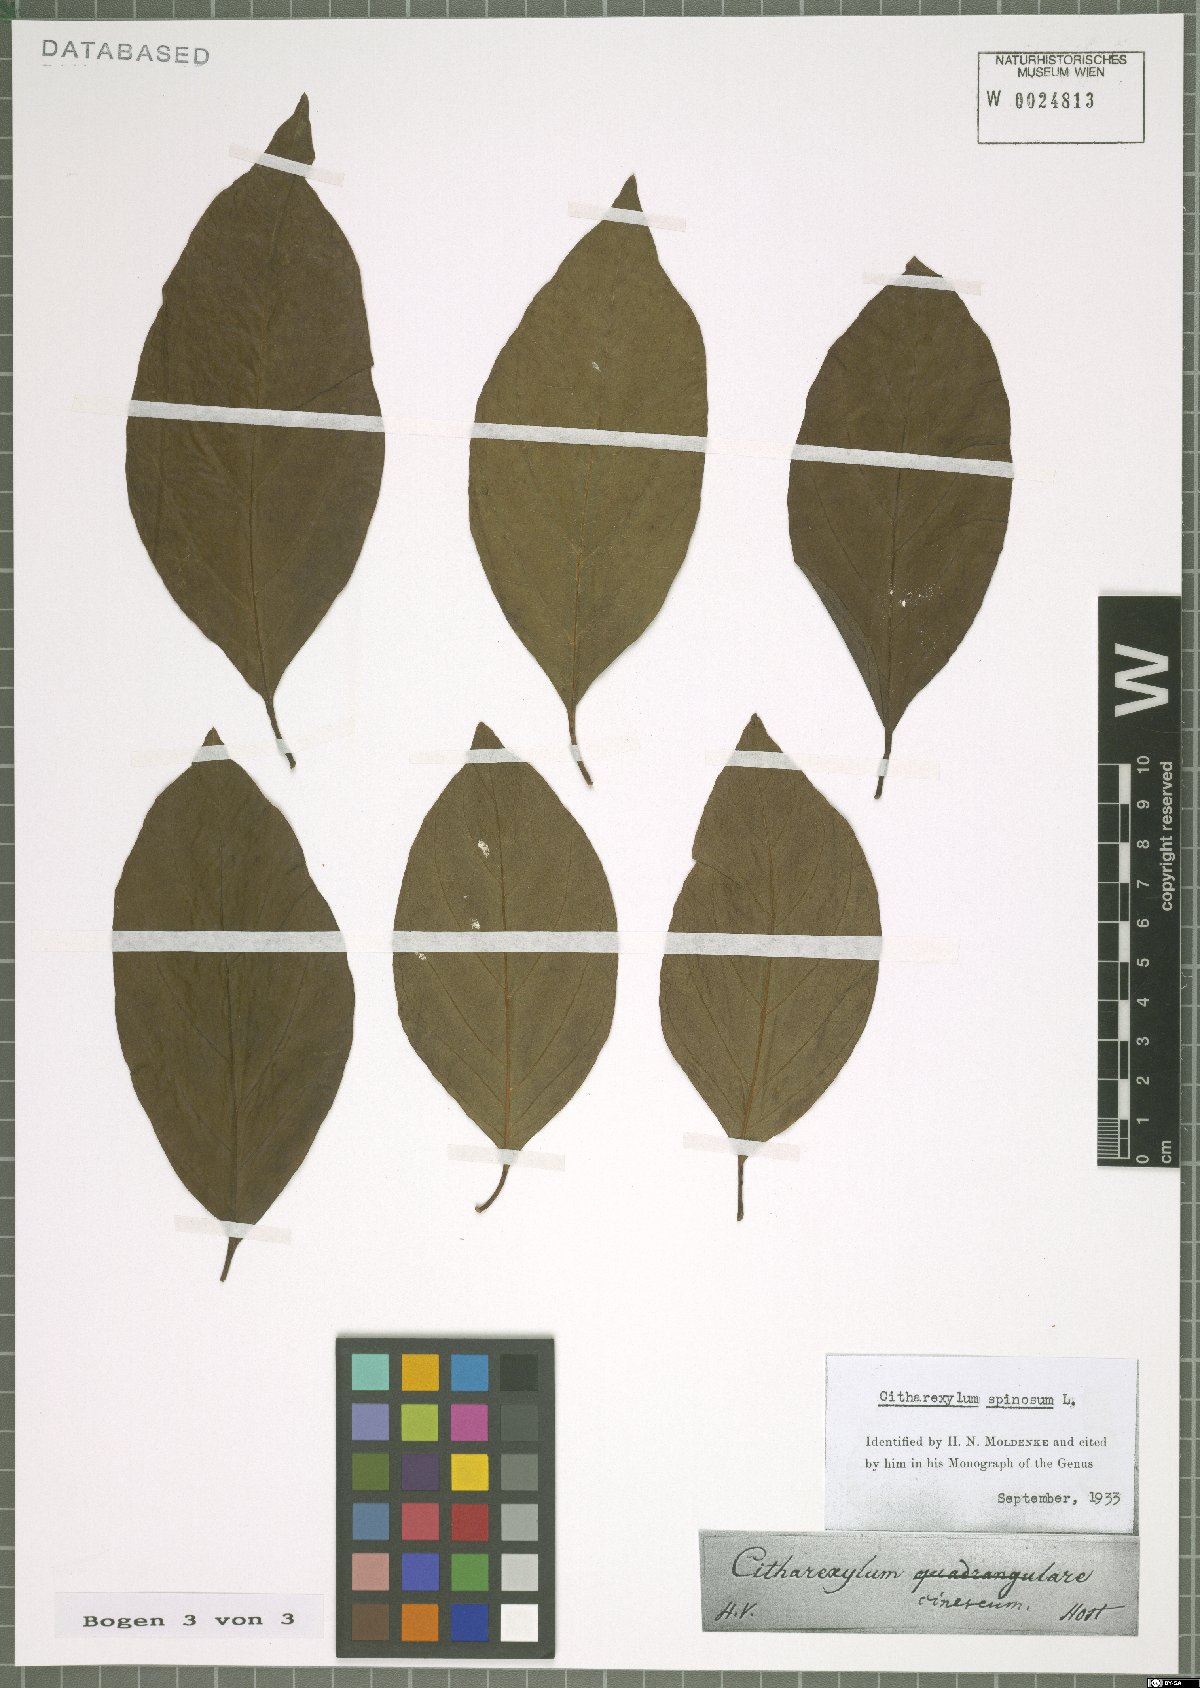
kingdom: Plantae
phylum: Tracheophyta
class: Magnoliopsida
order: Lamiales
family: Verbenaceae
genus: Citharexylum
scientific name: Citharexylum spinosum
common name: Fiddlewood
